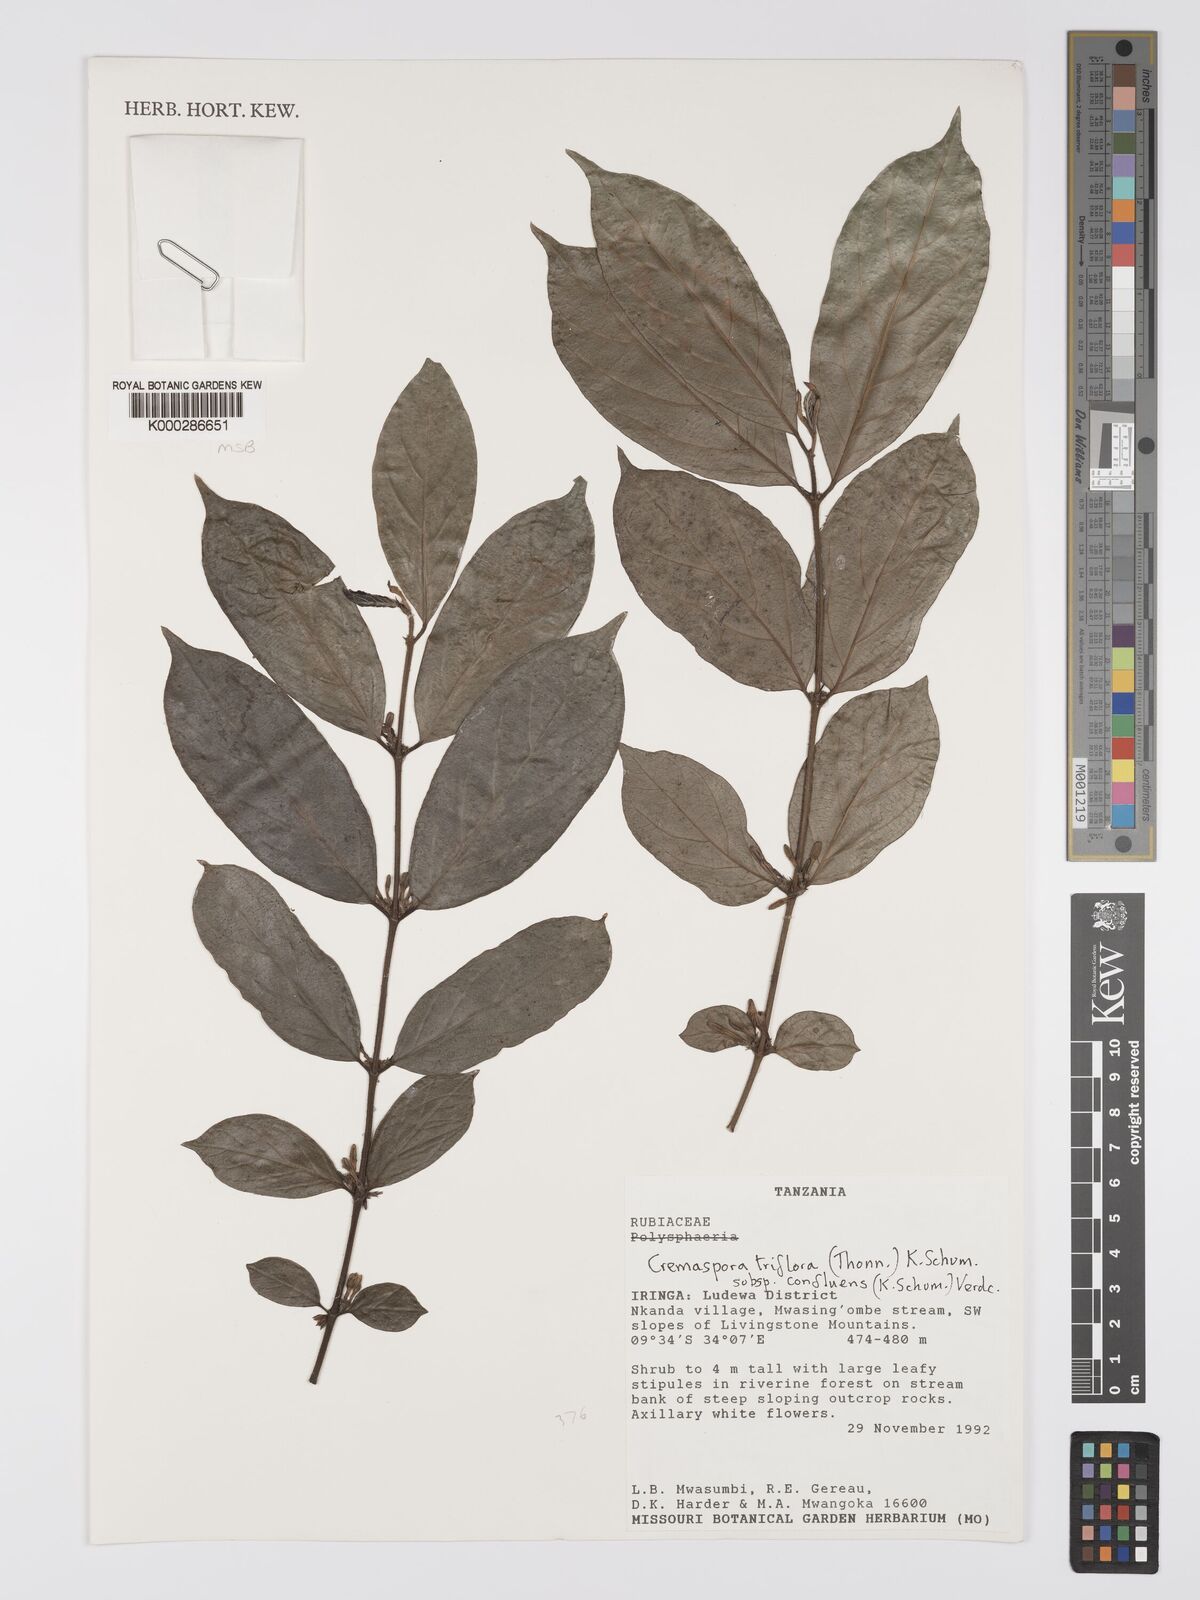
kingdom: Plantae
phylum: Tracheophyta
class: Magnoliopsida
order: Gentianales
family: Rubiaceae
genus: Cremaspora
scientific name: Cremaspora triflora
